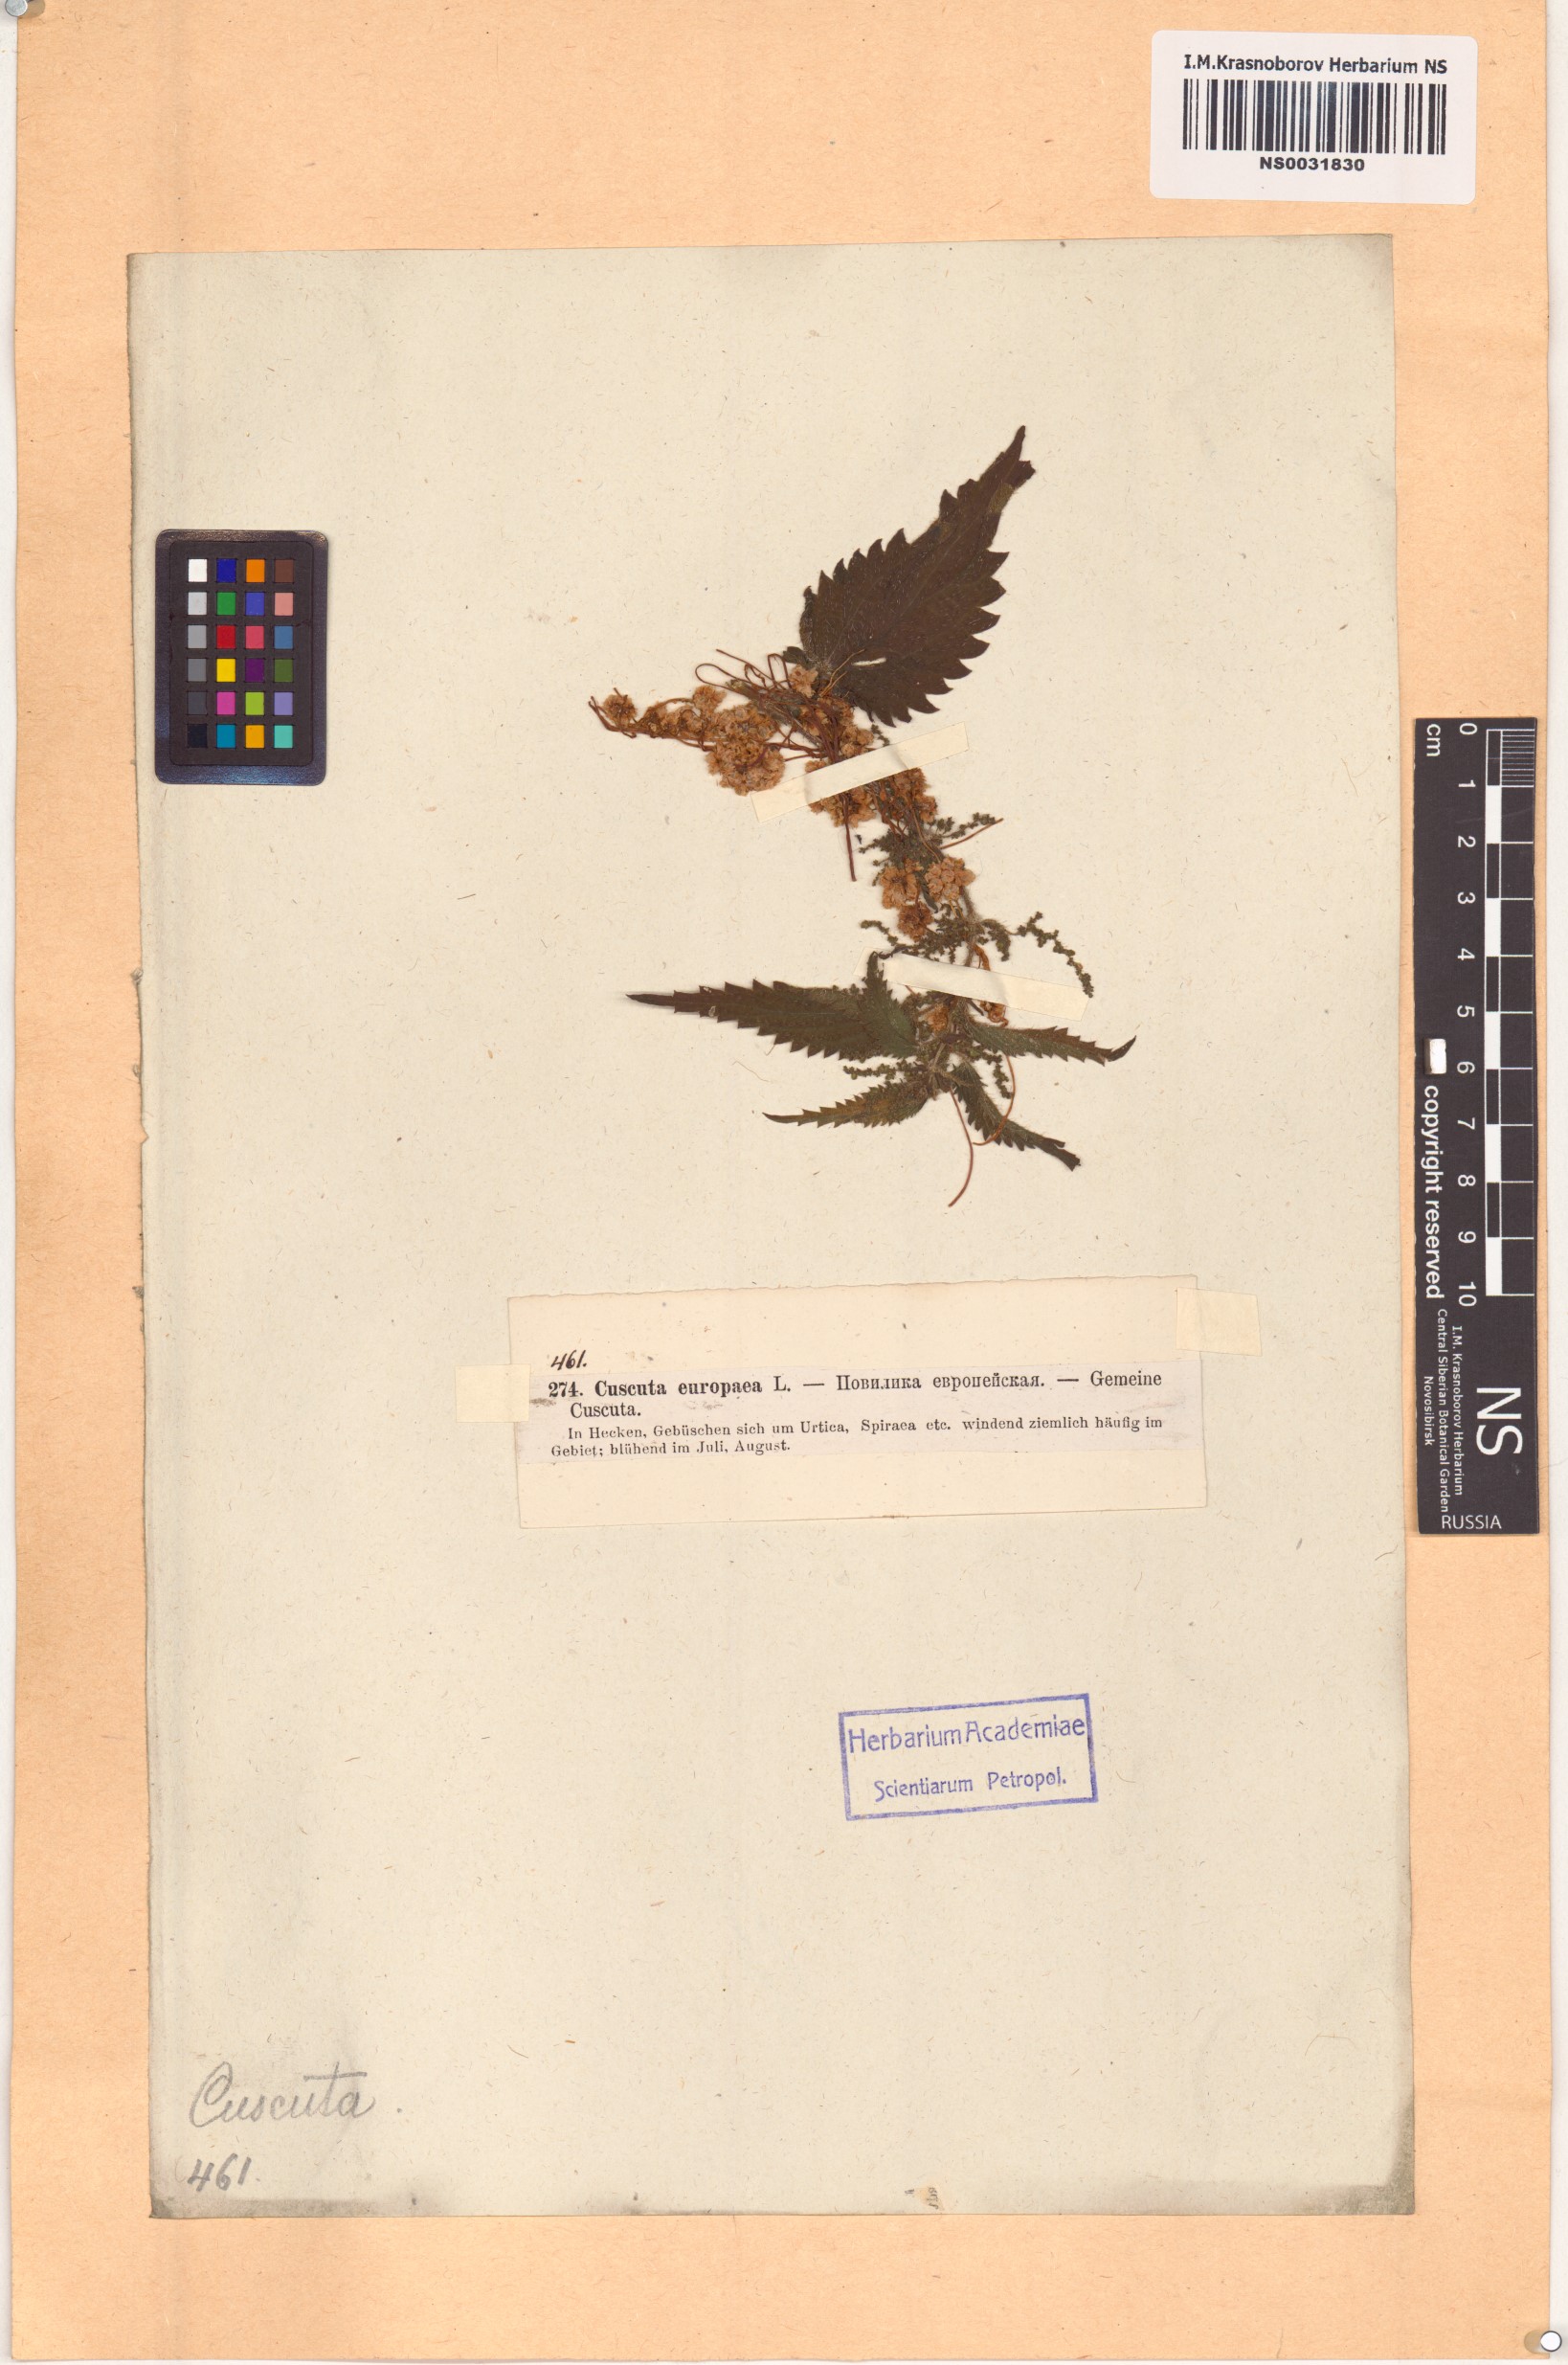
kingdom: Plantae
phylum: Tracheophyta
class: Magnoliopsida
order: Solanales
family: Convolvulaceae
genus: Cuscuta
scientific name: Cuscuta europaea
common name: Greater dodder
